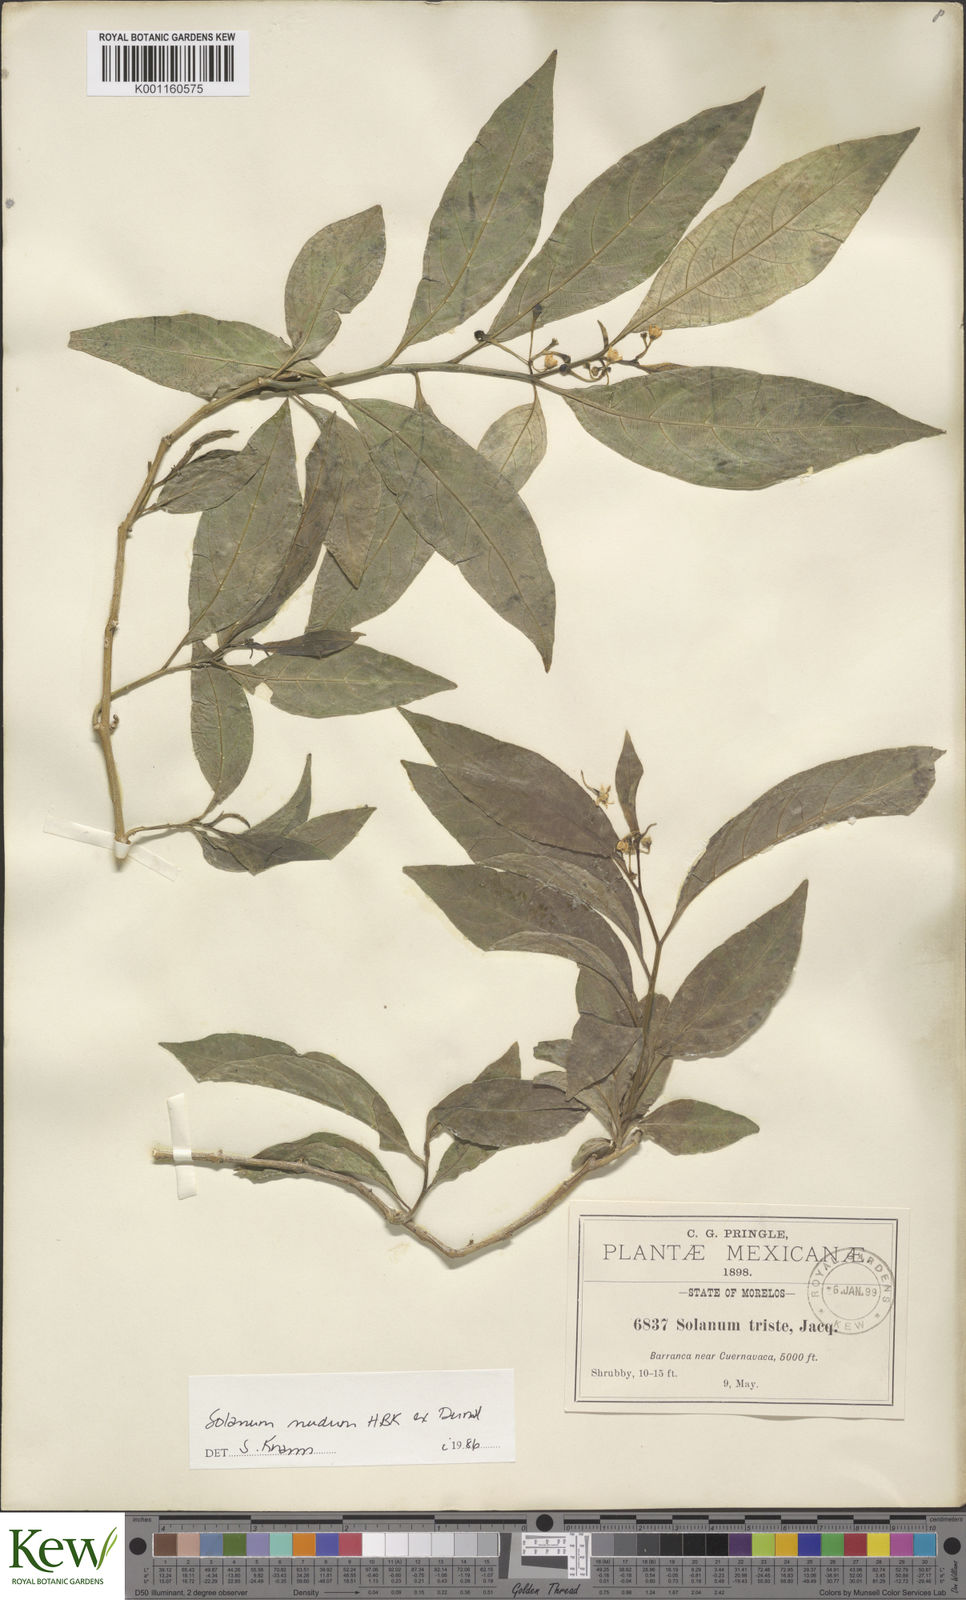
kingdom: Plantae
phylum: Tracheophyta
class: Magnoliopsida
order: Solanales
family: Solanaceae
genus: Solanum
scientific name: Solanum nudum
